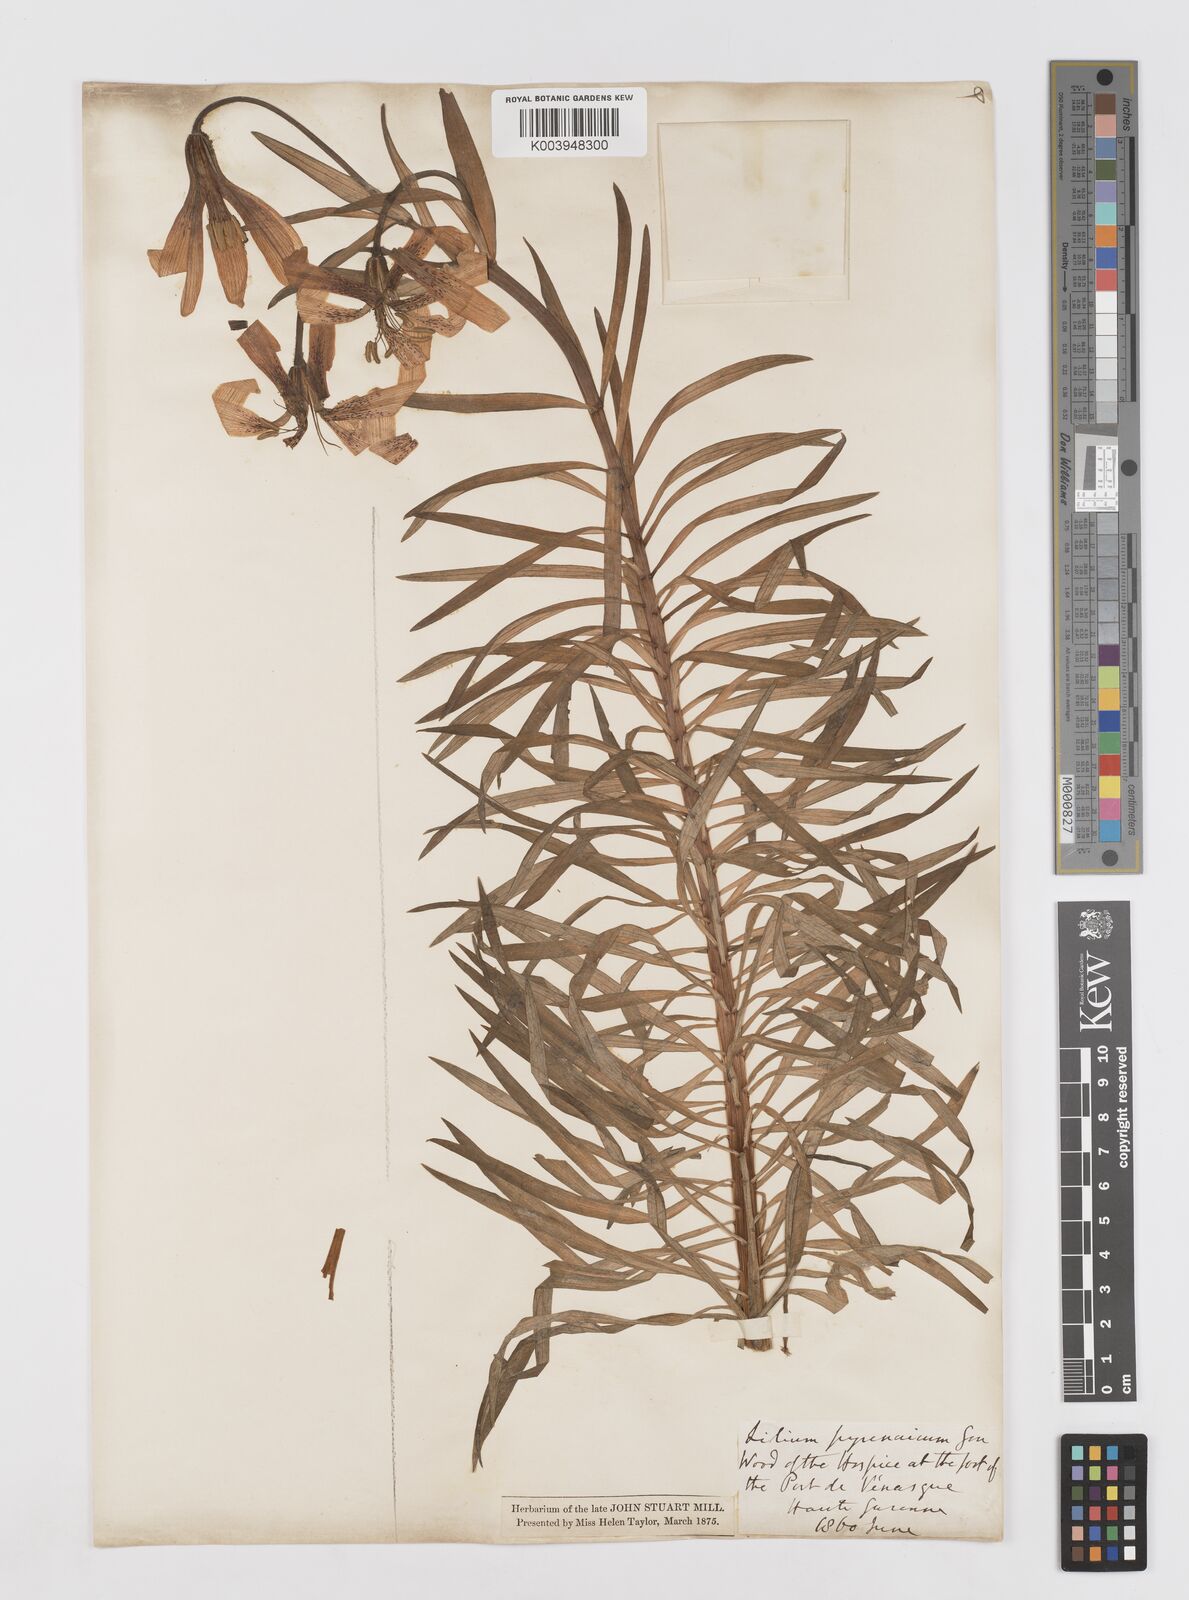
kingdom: Plantae
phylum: Tracheophyta
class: Liliopsida
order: Liliales
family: Liliaceae
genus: Lilium
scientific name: Lilium pyrenaicum
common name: Pyrenean lily
